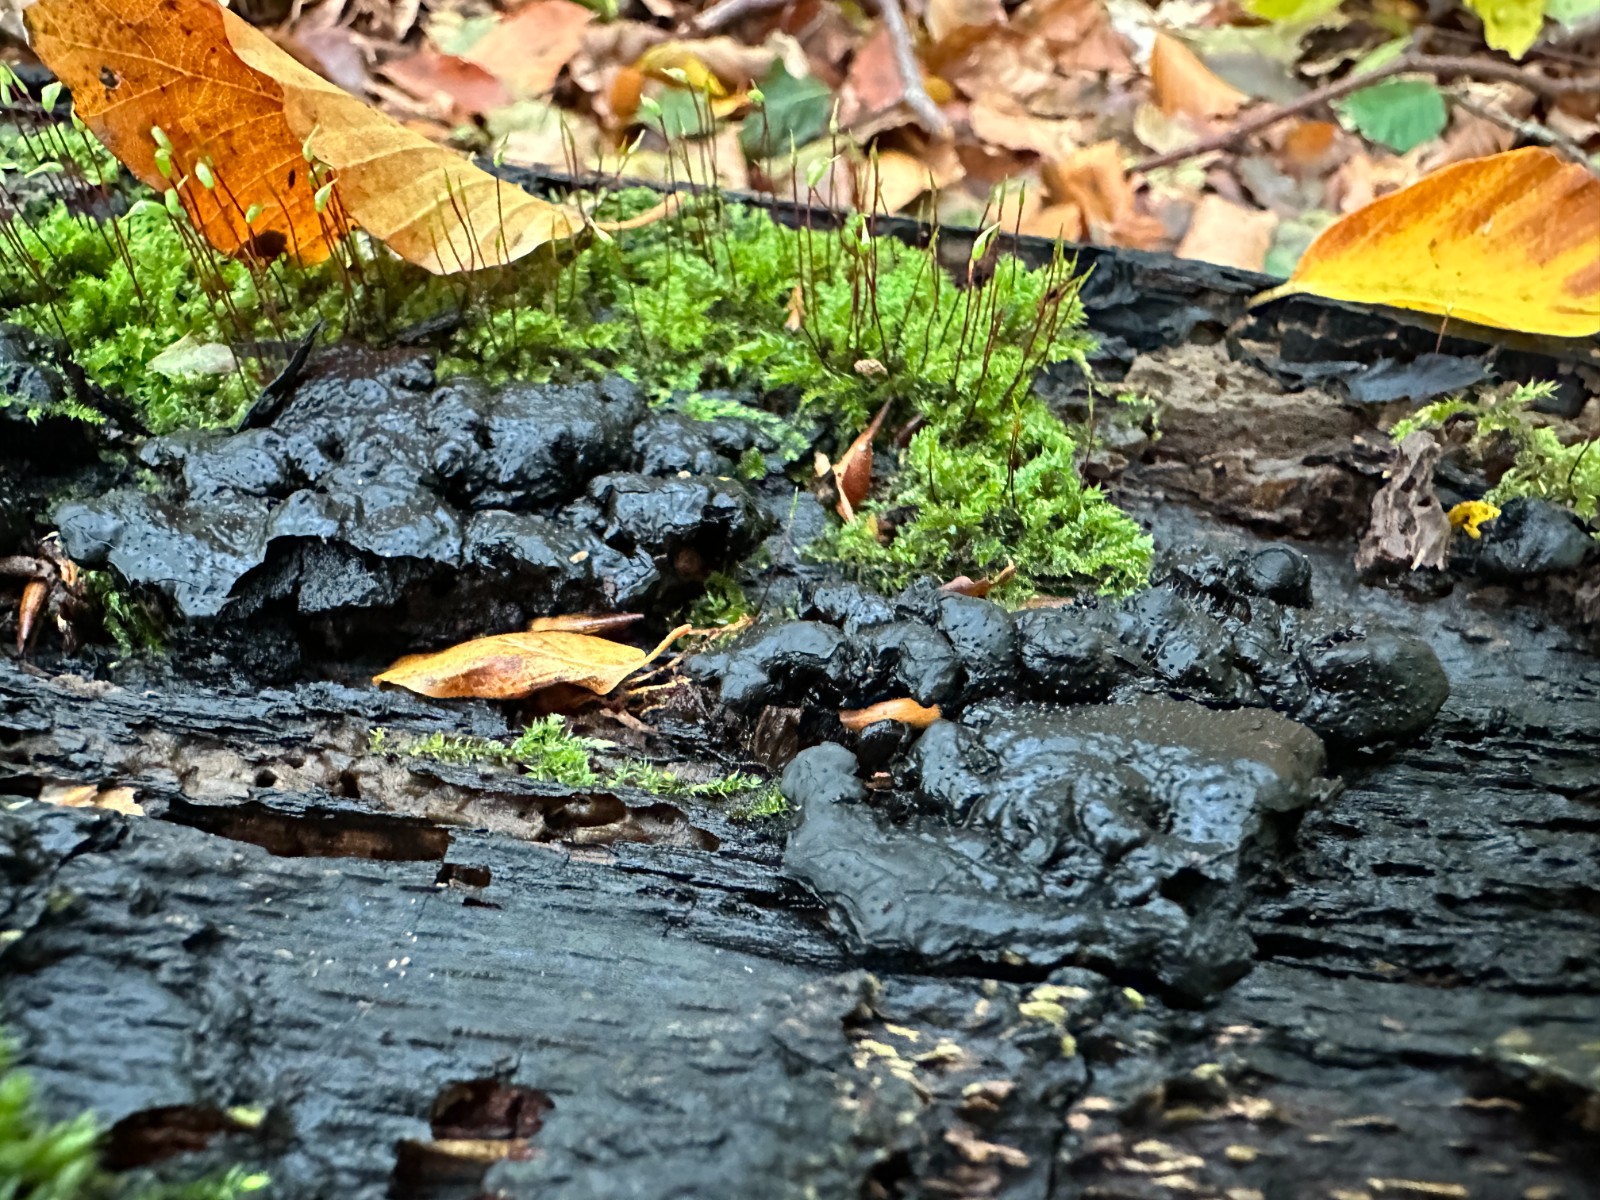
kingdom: Fungi
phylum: Ascomycota
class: Sordariomycetes
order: Xylariales
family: Xylariaceae
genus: Kretzschmaria
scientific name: Kretzschmaria deusta
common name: stor kulsvamp
